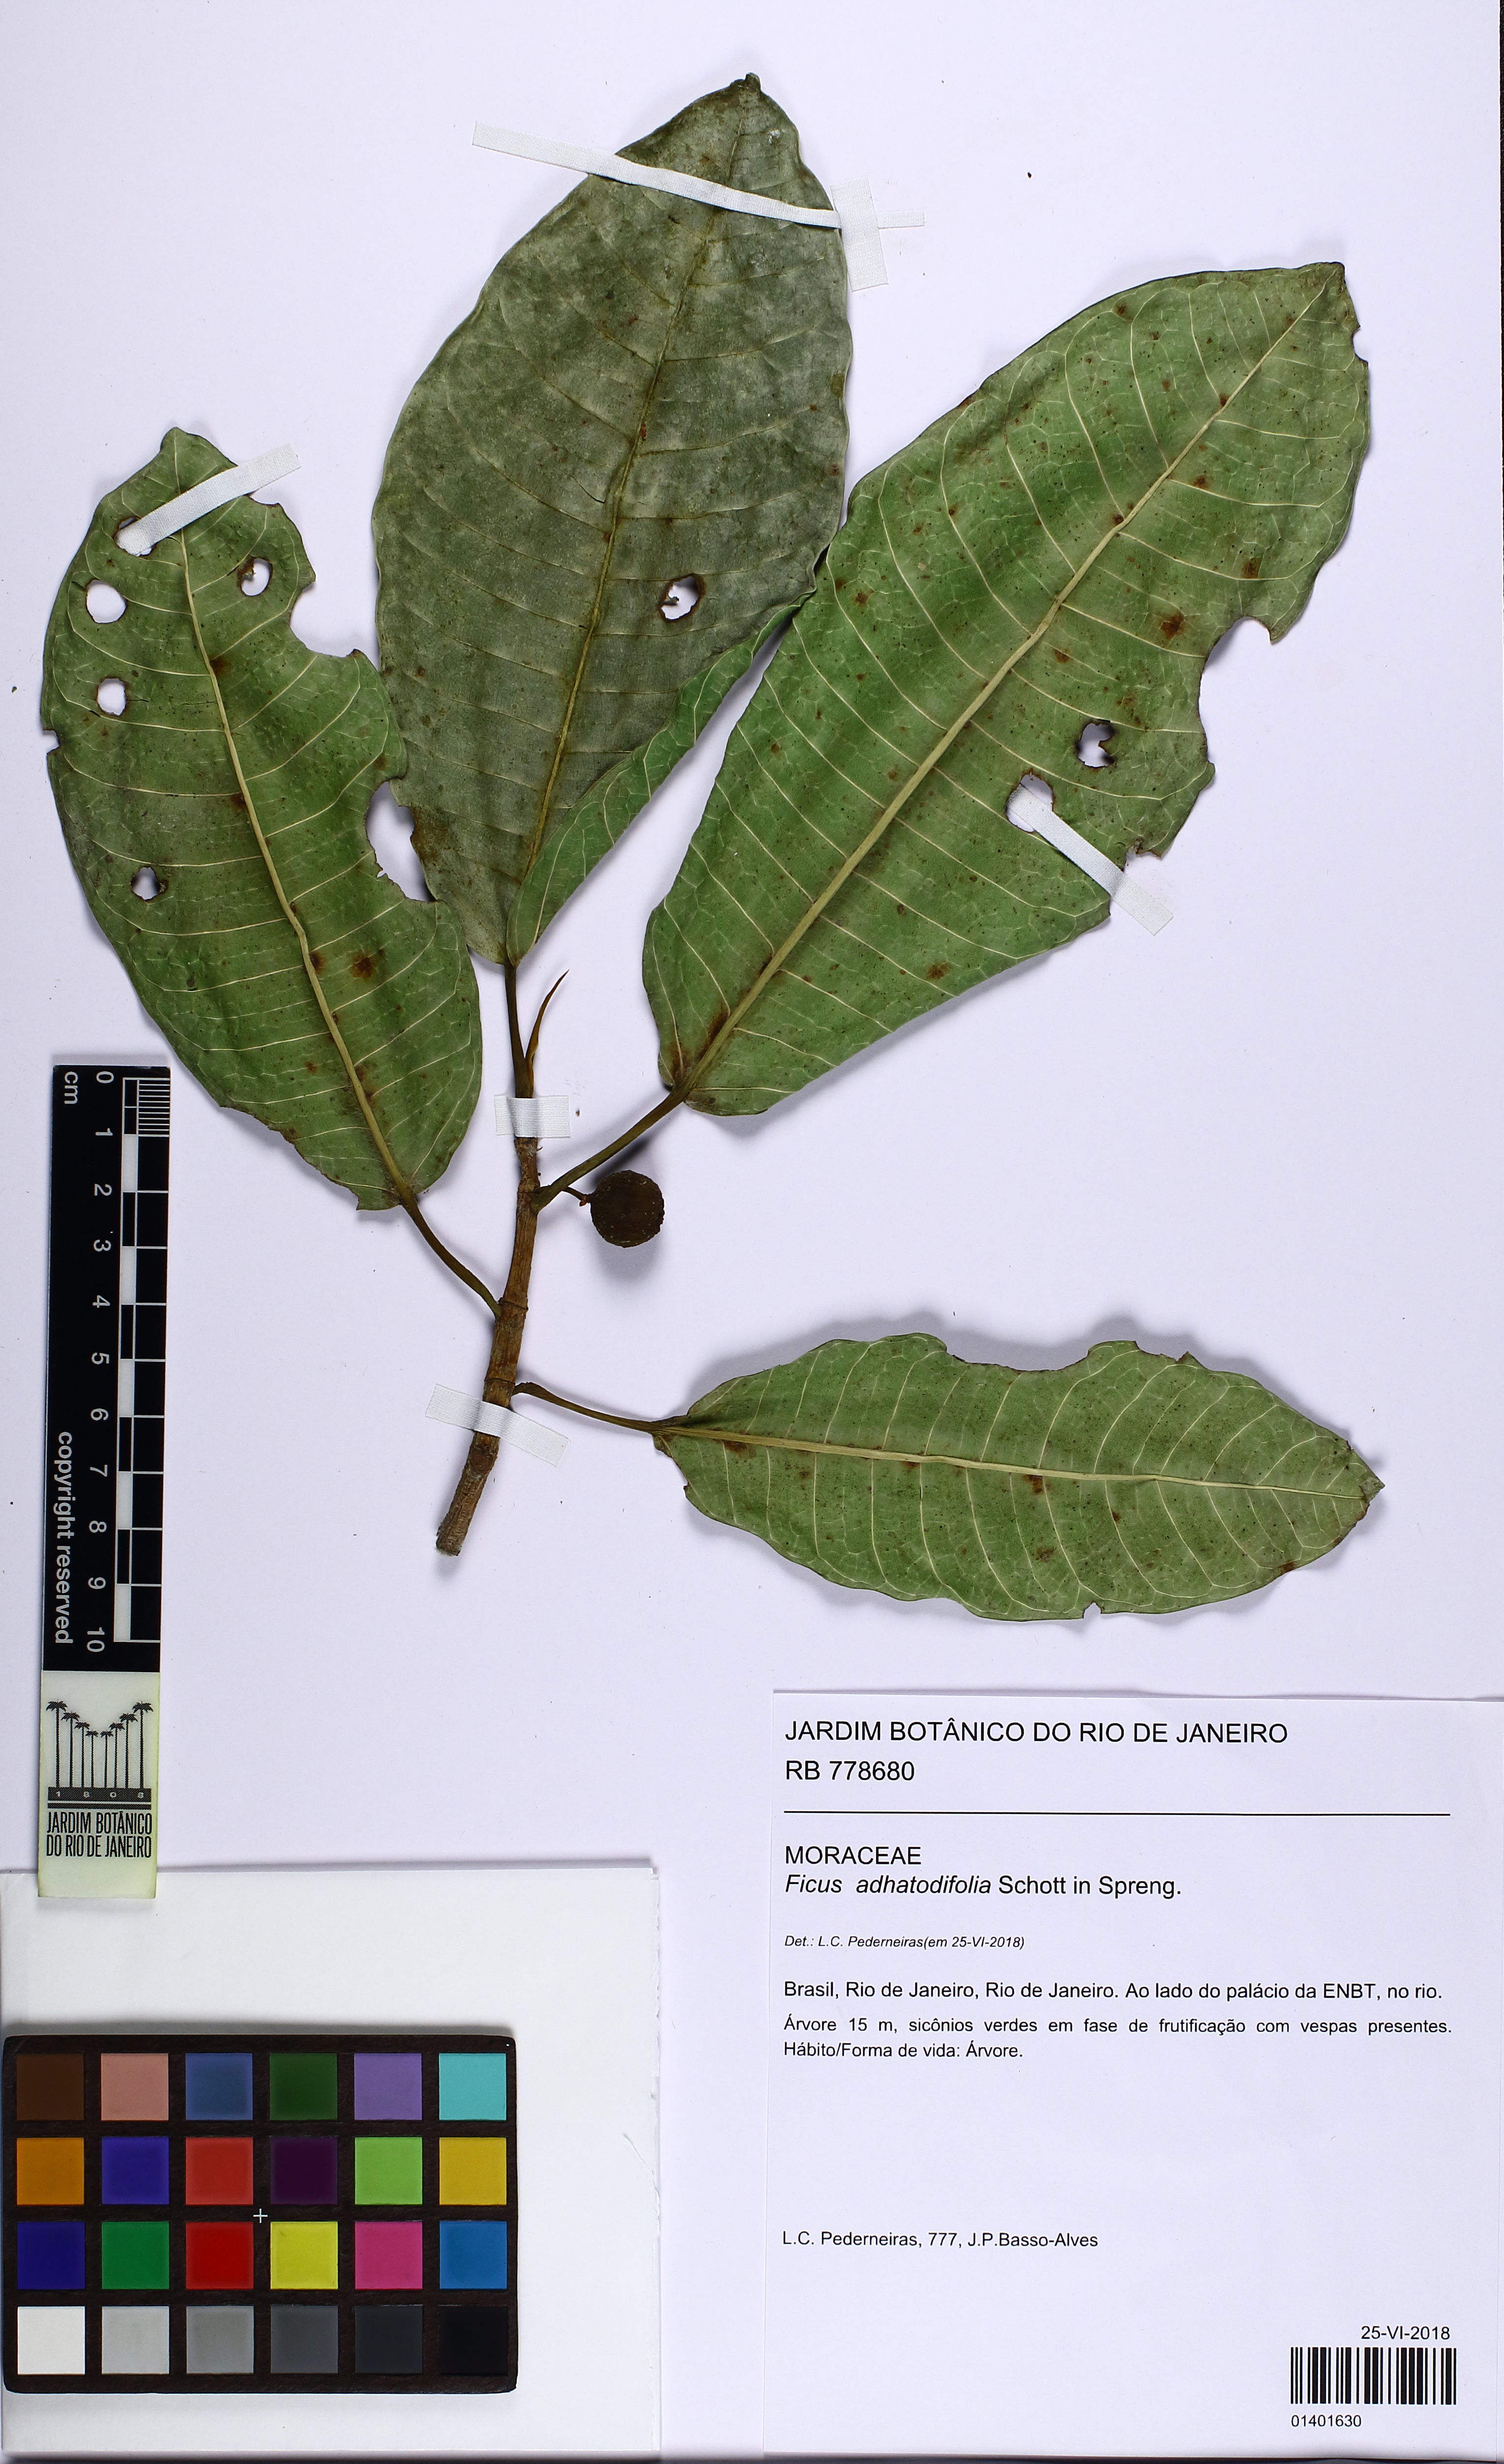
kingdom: Plantae
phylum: Tracheophyta
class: Magnoliopsida
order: Rosales
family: Moraceae
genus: Ficus
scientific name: Ficus adhatodifolia
